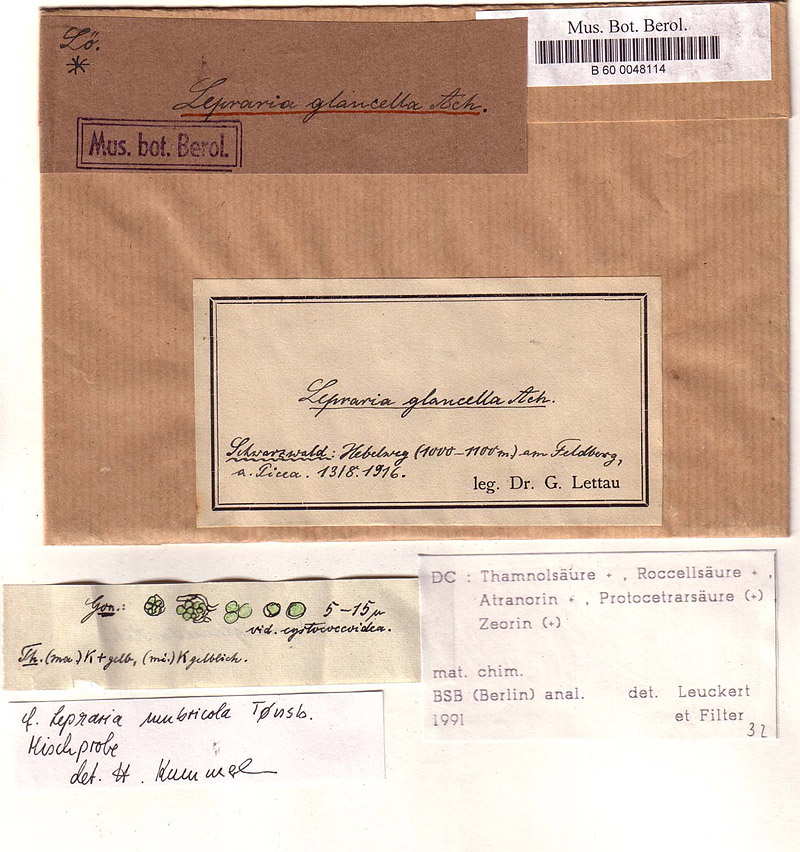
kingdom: Fungi
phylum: Ascomycota
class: Lecanoromycetes
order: Lecanorales
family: Stereocaulaceae
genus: Lepraria
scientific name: Lepraria umbricola
